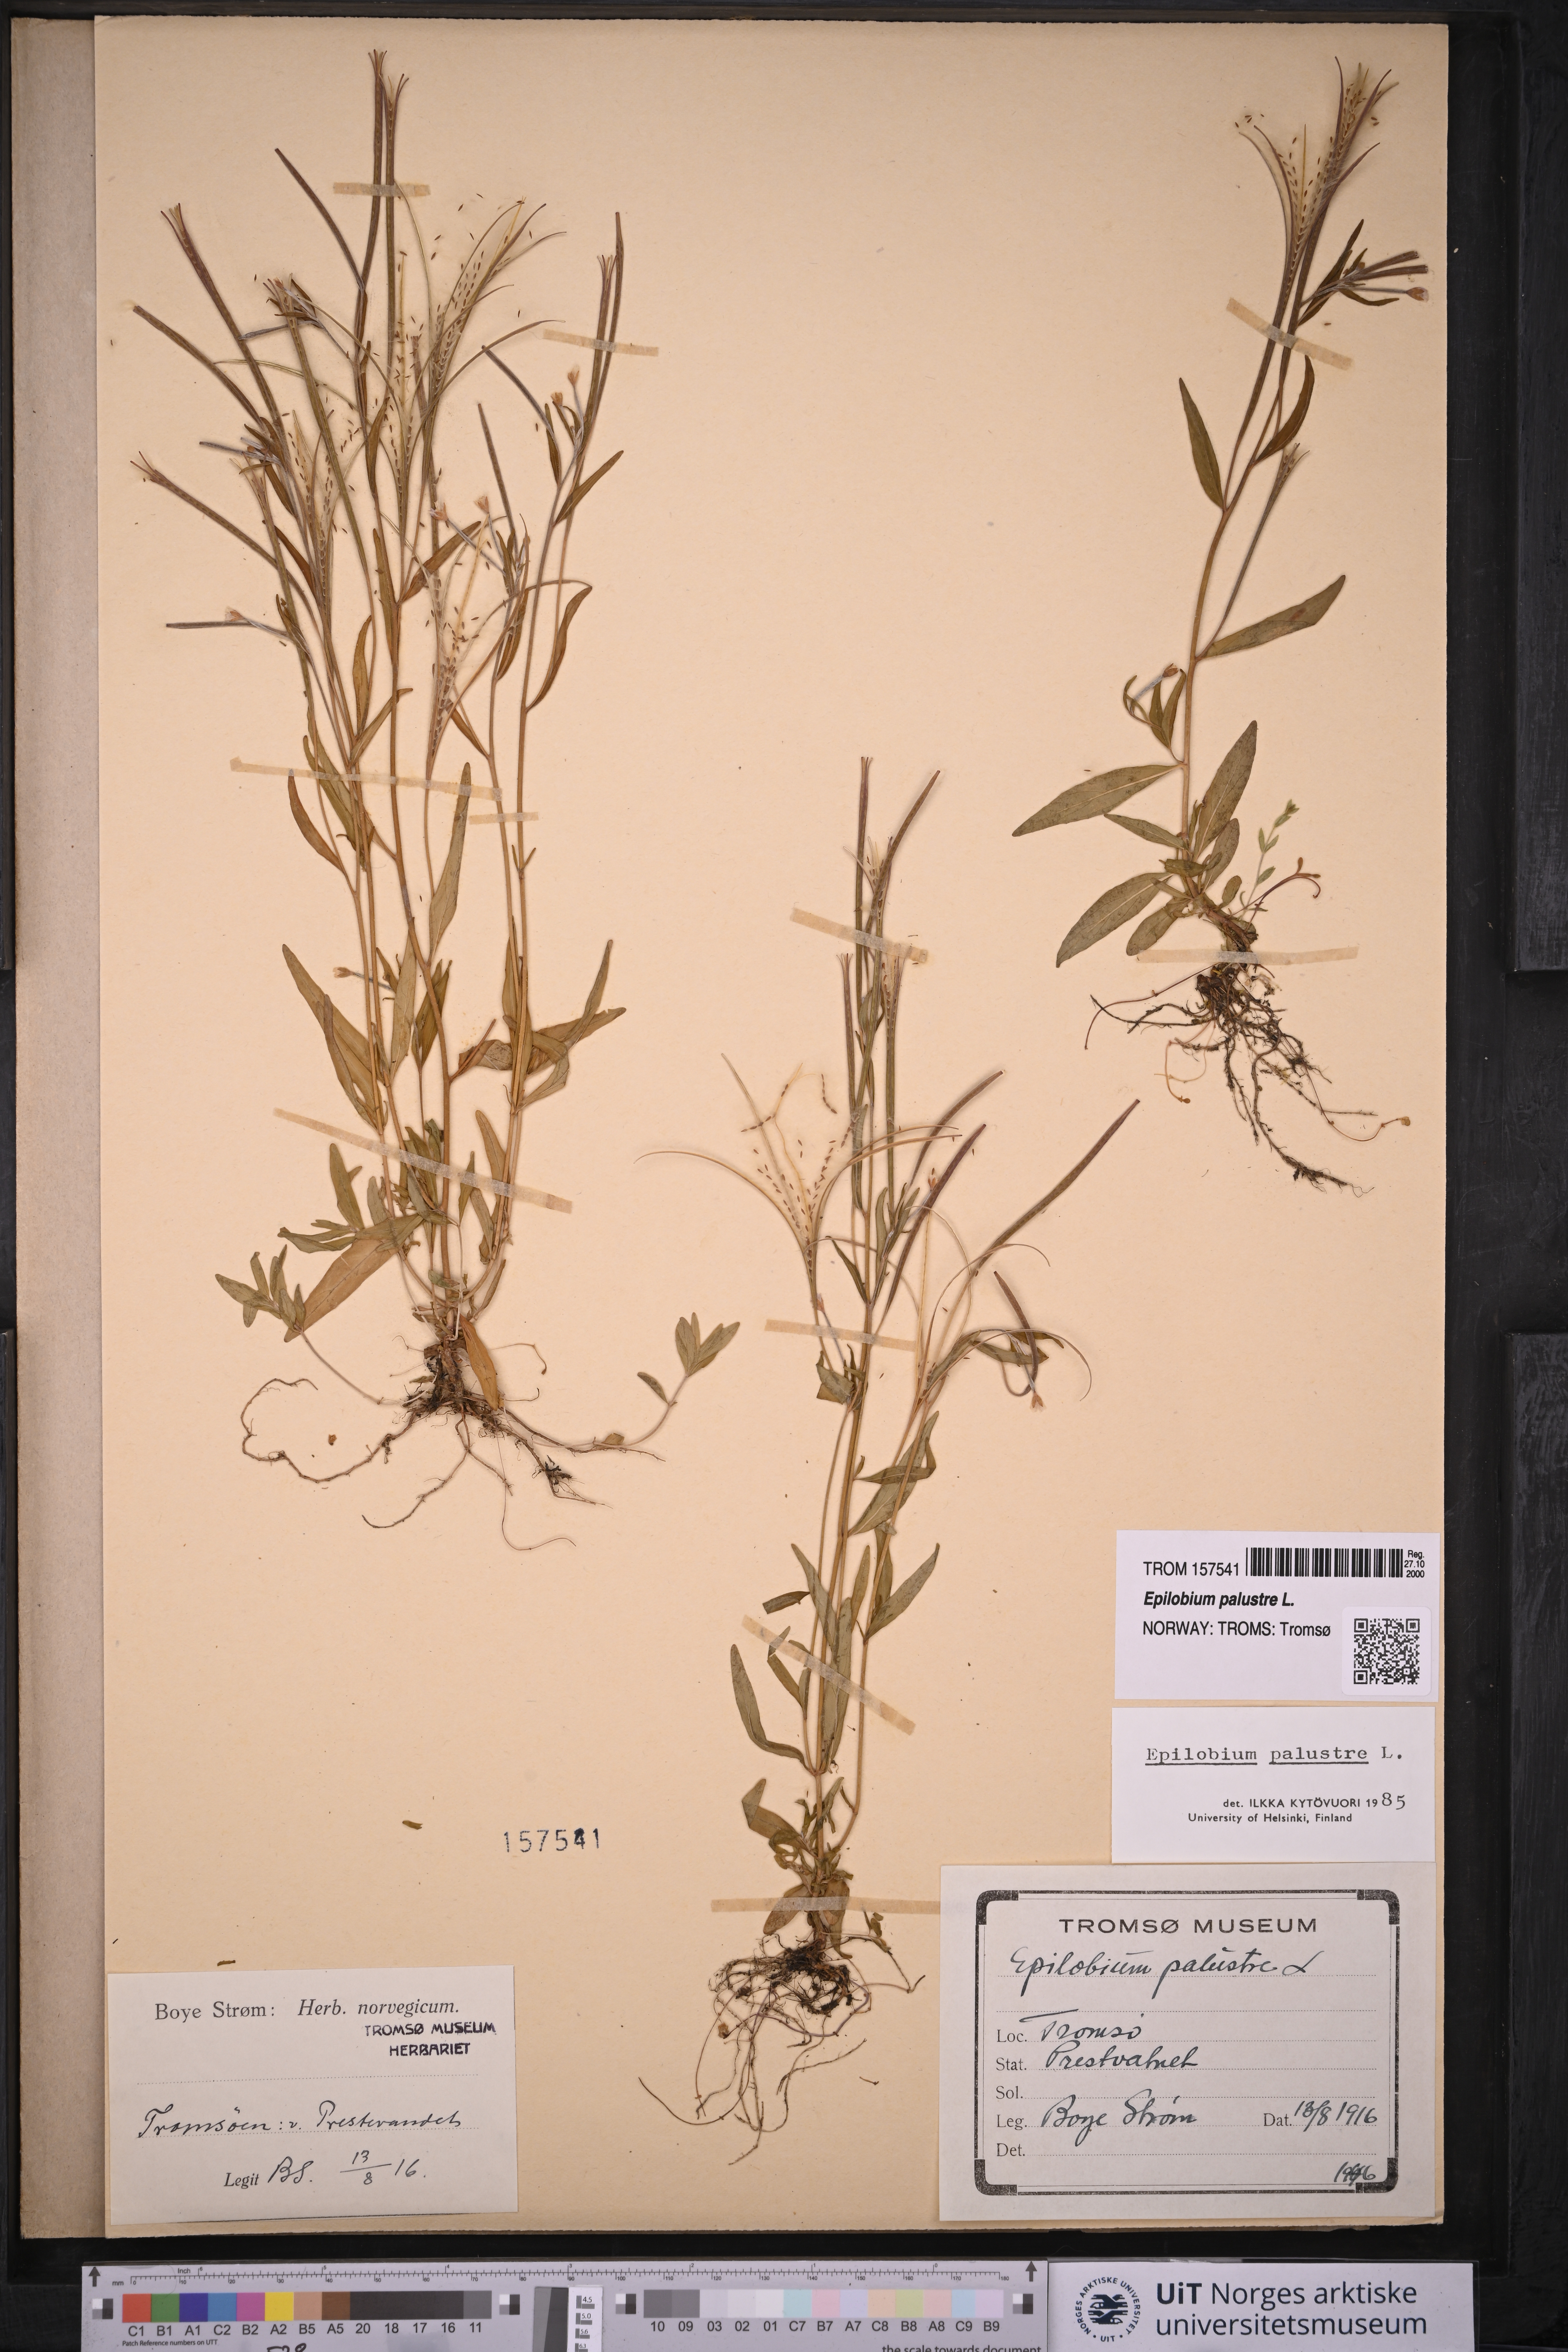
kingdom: Plantae
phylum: Tracheophyta
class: Magnoliopsida
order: Myrtales
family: Onagraceae
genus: Epilobium
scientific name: Epilobium palustre
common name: Marsh willowherb
